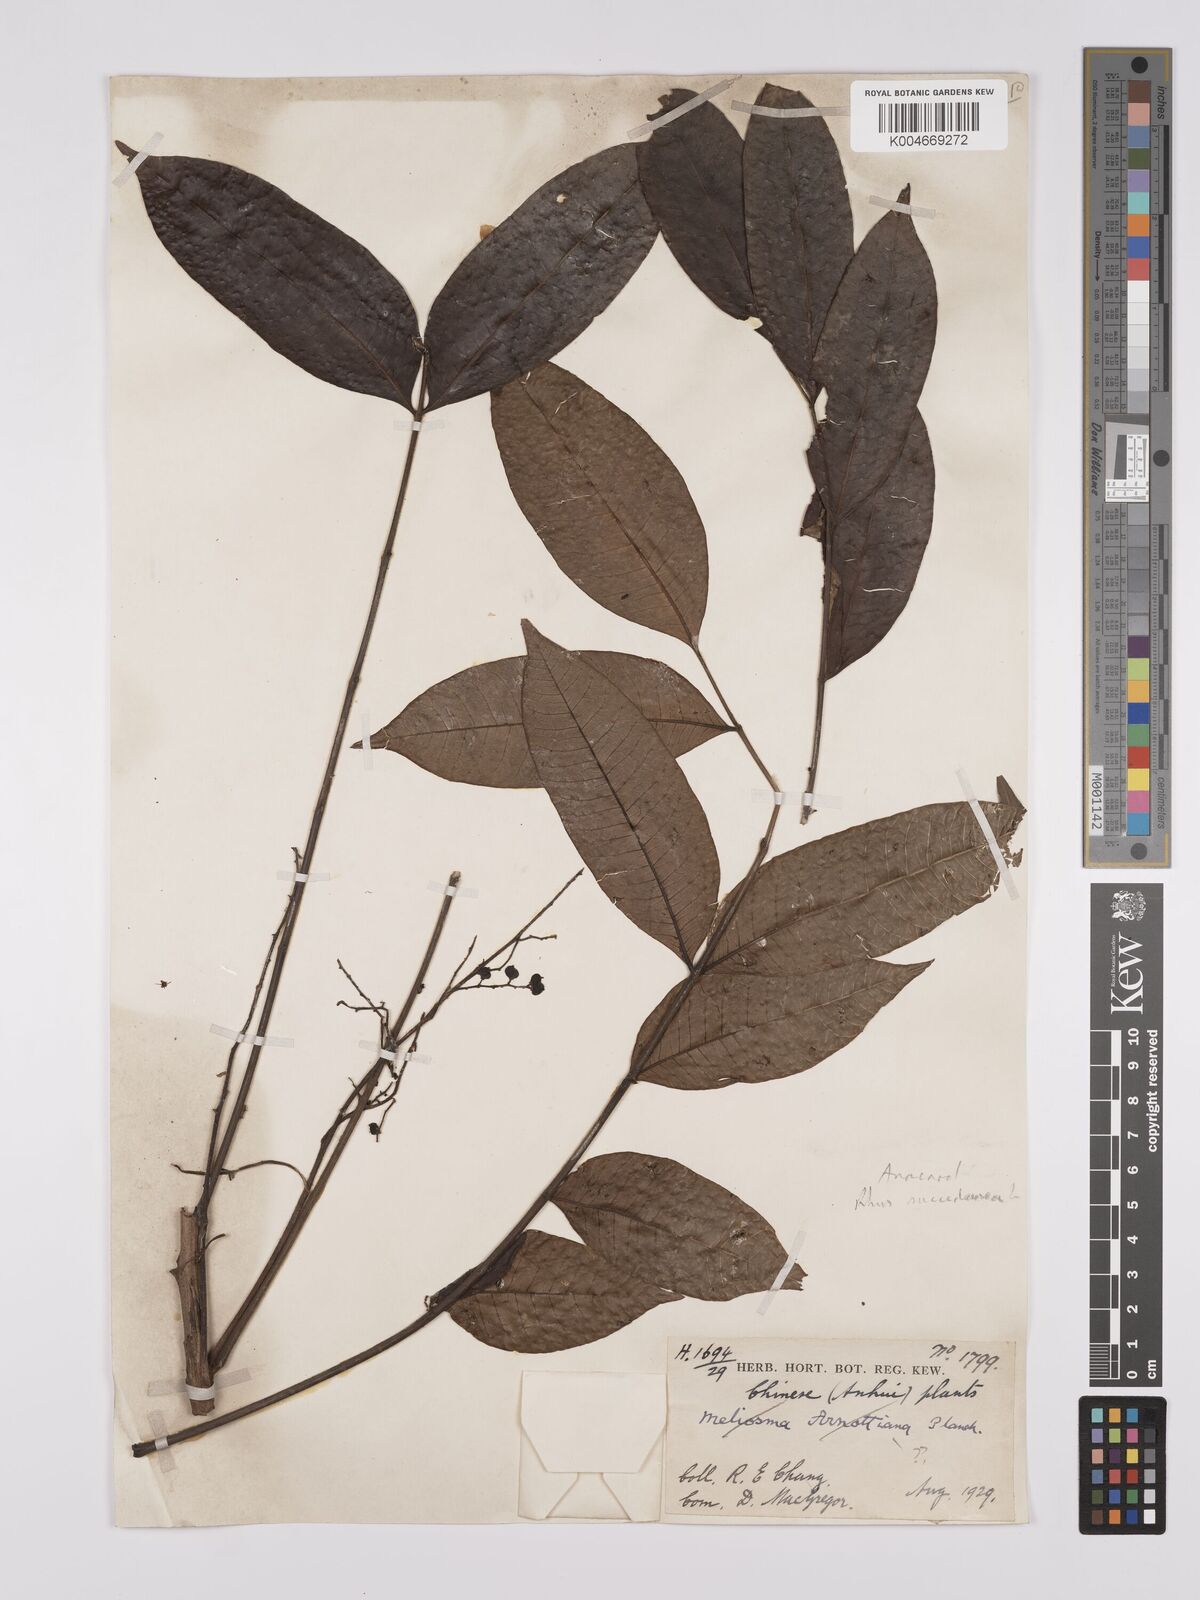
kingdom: Plantae
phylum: Tracheophyta
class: Magnoliopsida
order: Sapindales
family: Anacardiaceae
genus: Toxicodendron
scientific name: Toxicodendron succedaneum
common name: Wax tree
